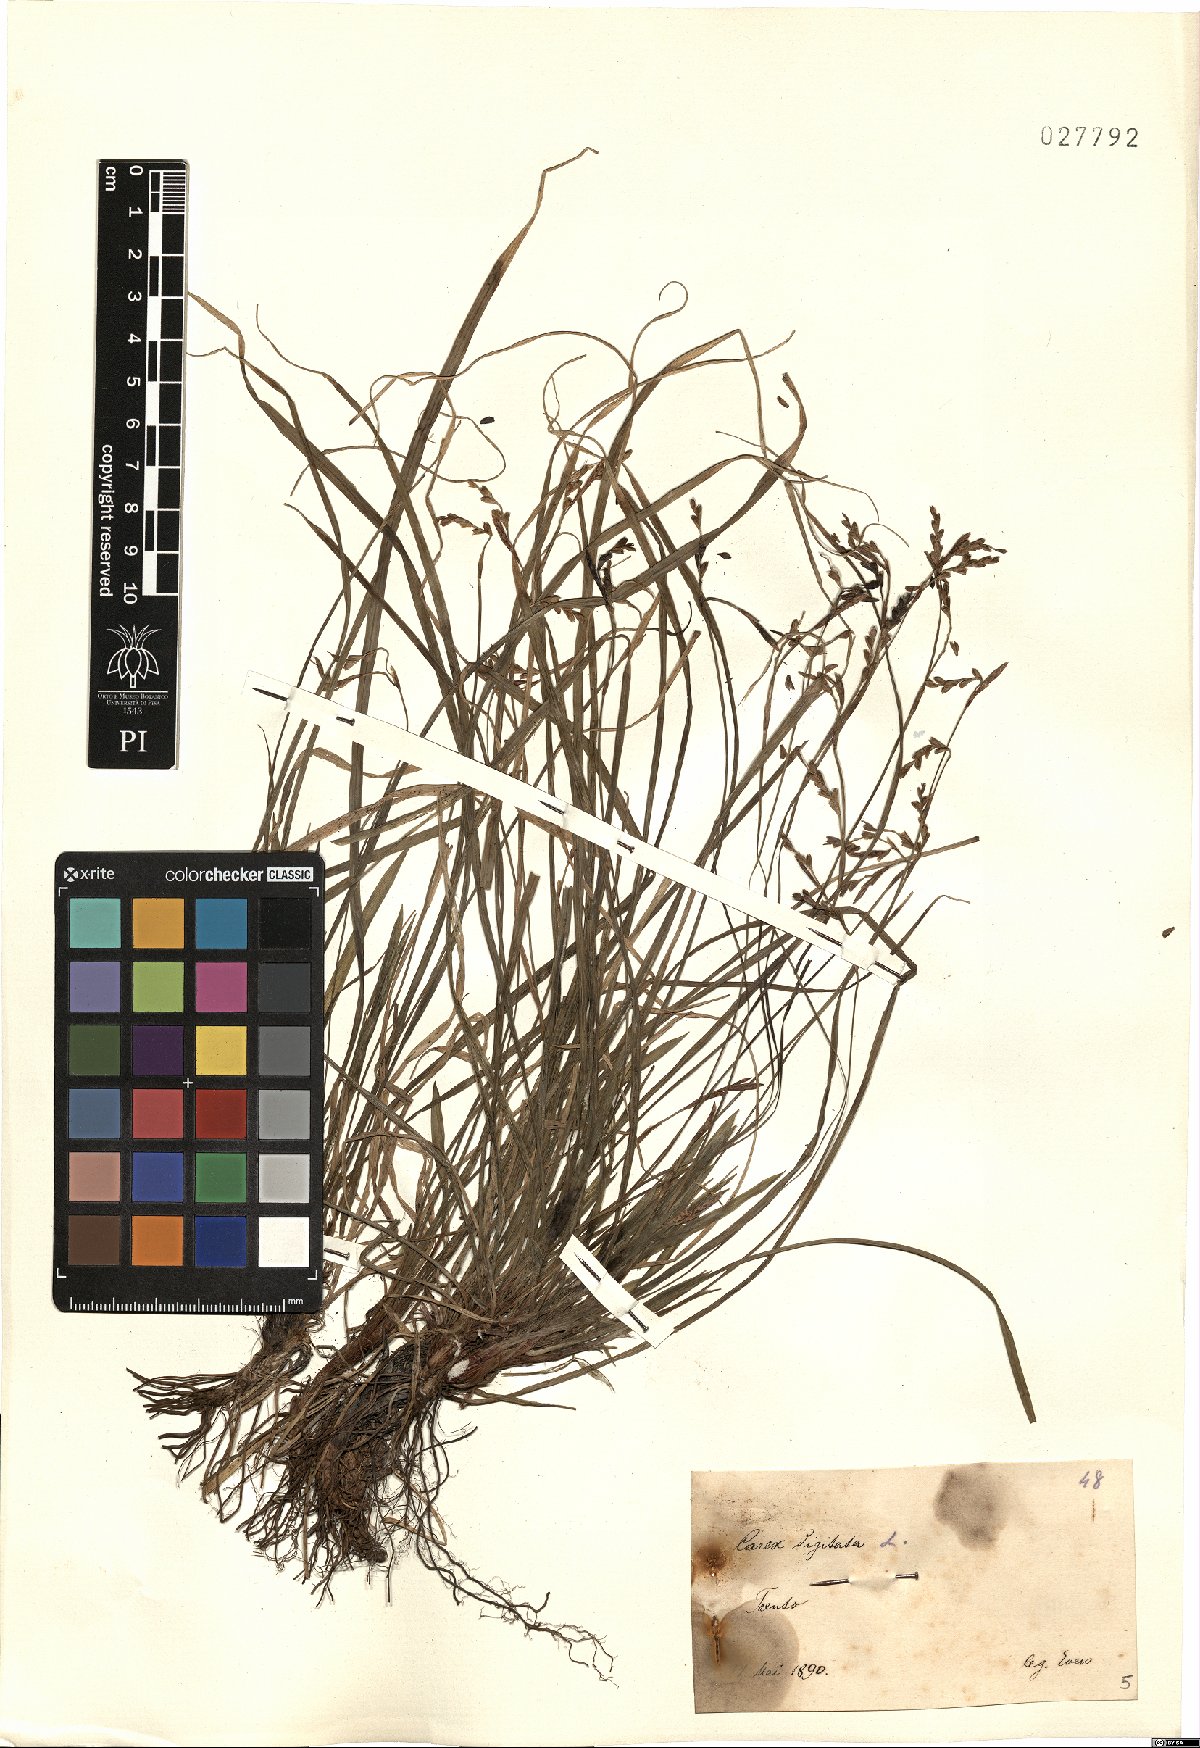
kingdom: Plantae
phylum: Tracheophyta
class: Liliopsida
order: Poales
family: Cyperaceae
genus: Carex
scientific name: Carex digitata
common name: Fingered sedge
